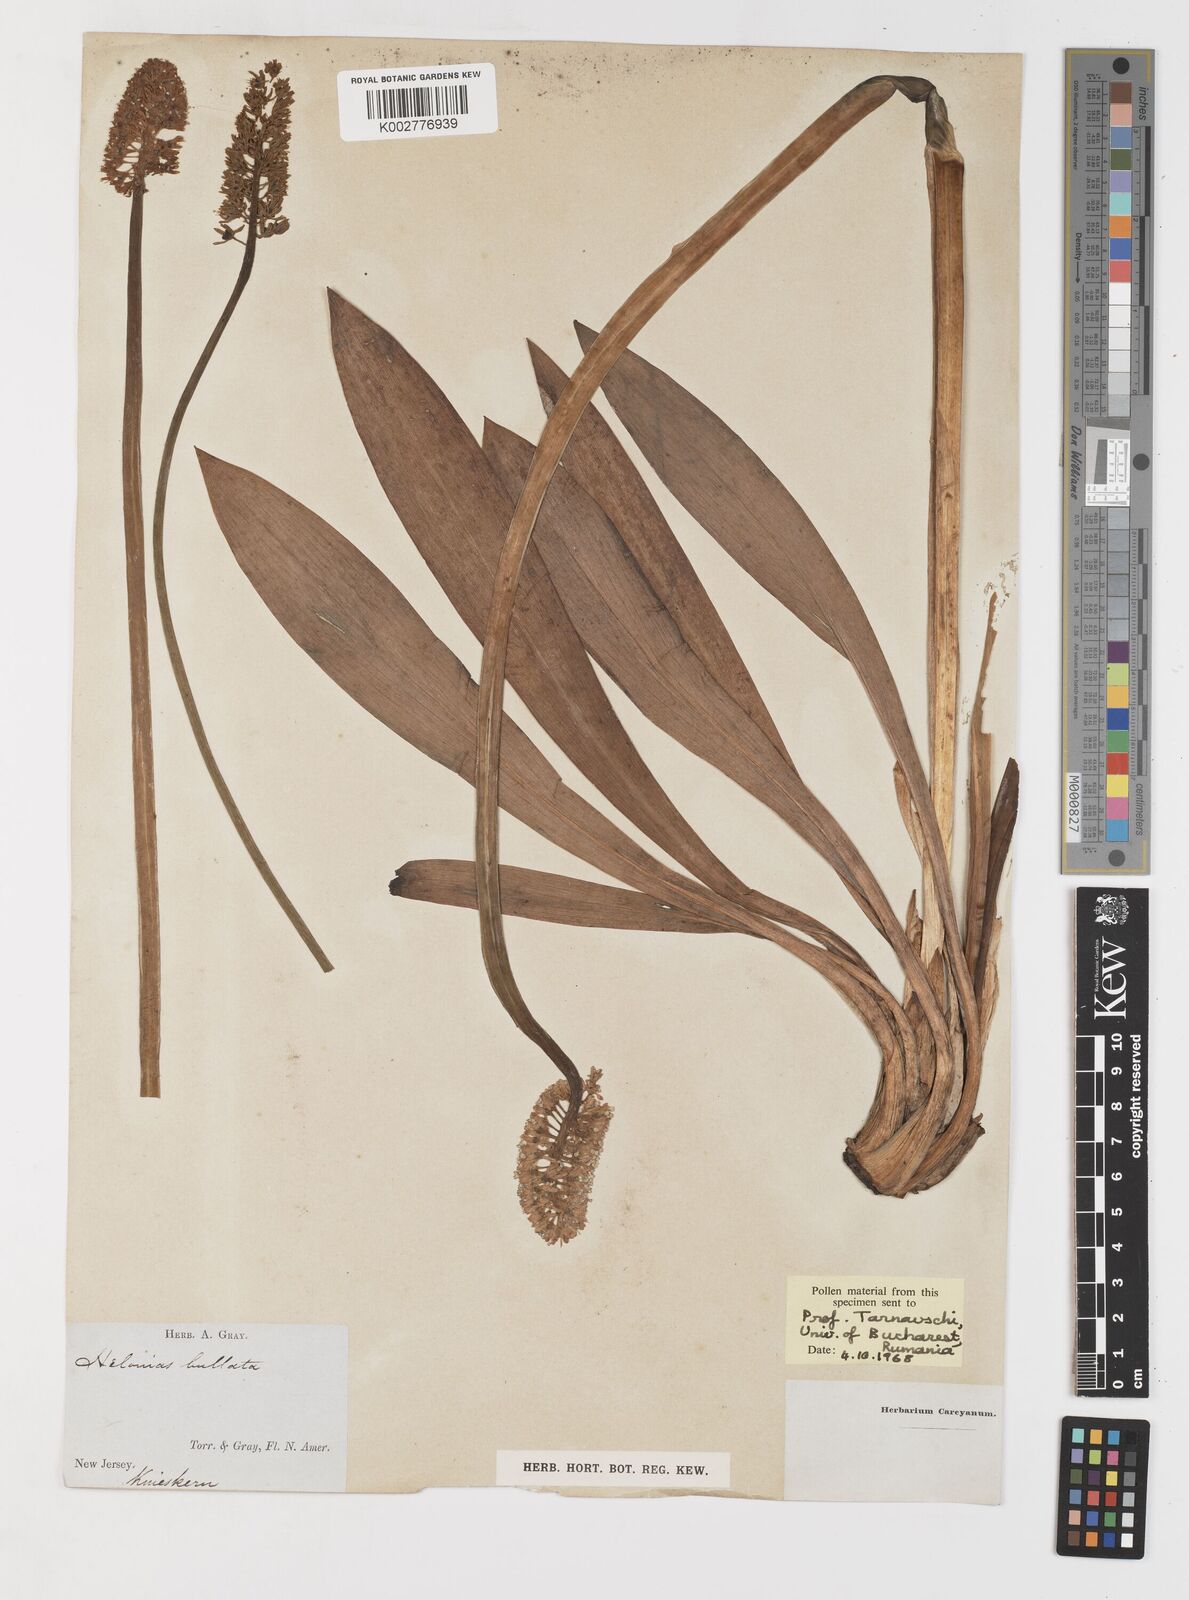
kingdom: Plantae
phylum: Tracheophyta
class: Liliopsida
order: Liliales
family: Melanthiaceae
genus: Helonias
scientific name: Helonias bullata
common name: Swamp-pink
